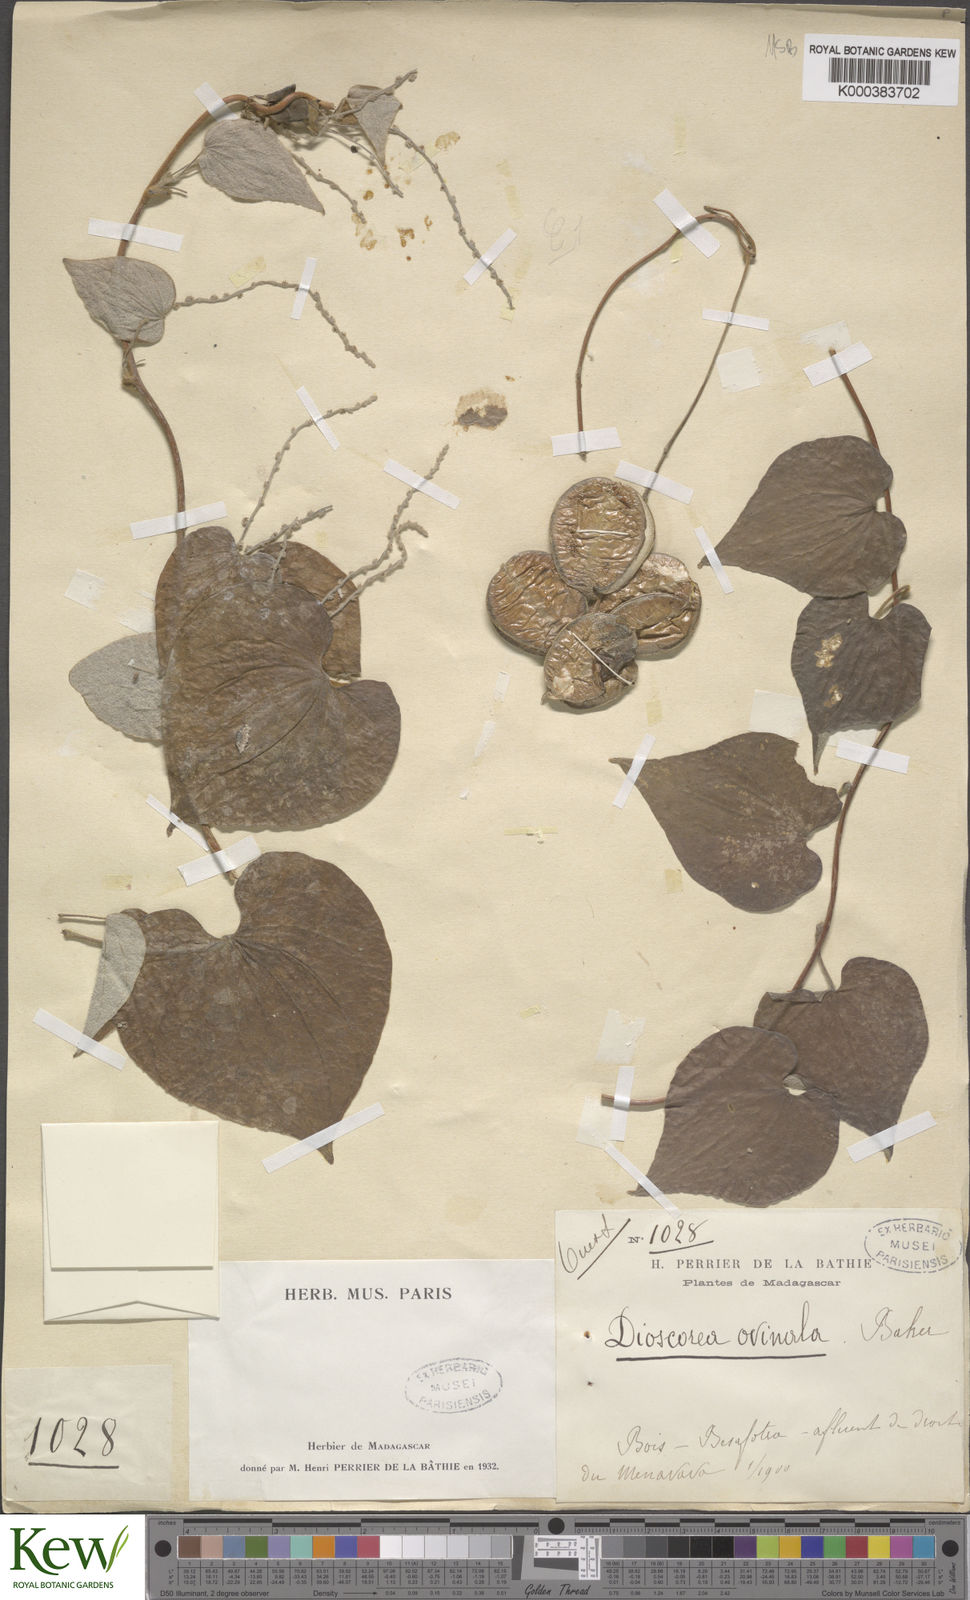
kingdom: Plantae
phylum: Tracheophyta
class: Liliopsida
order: Dioscoreales
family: Dioscoreaceae
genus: Dioscorea
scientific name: Dioscorea ovinala
